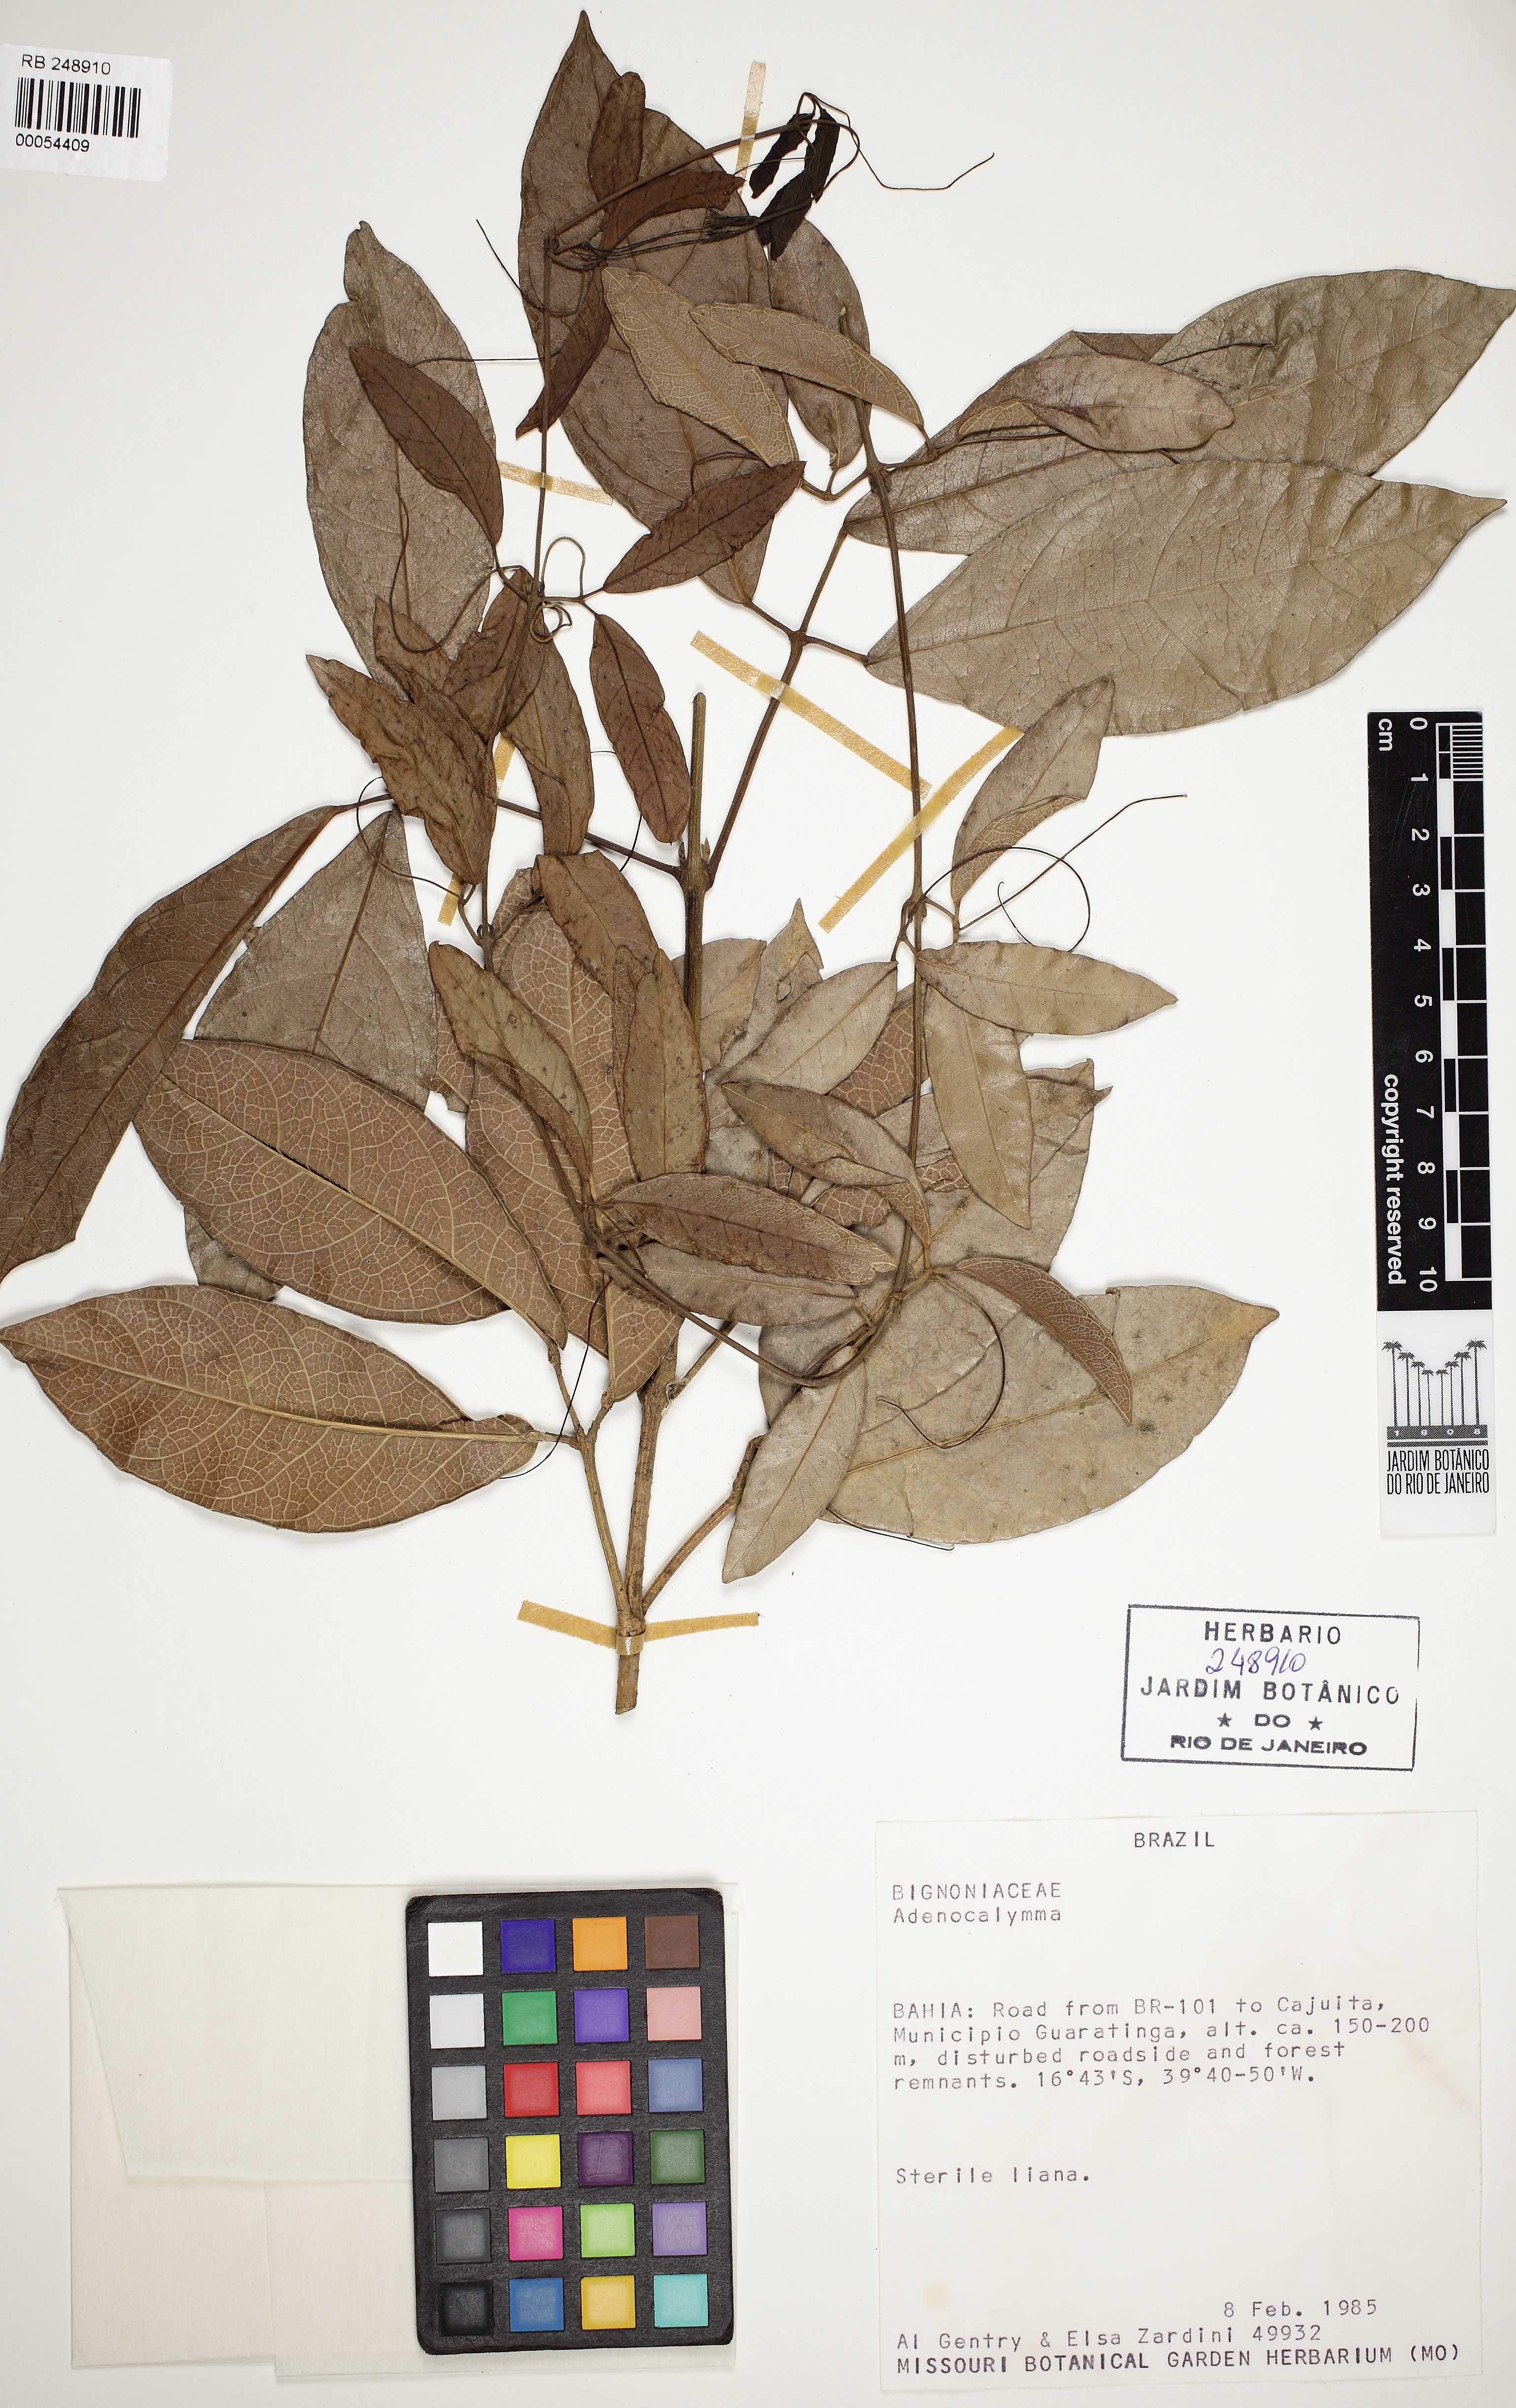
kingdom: Plantae
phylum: Tracheophyta
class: Magnoliopsida
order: Lamiales
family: Bignoniaceae
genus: Adenocalymma
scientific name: Adenocalymma acutissimum
